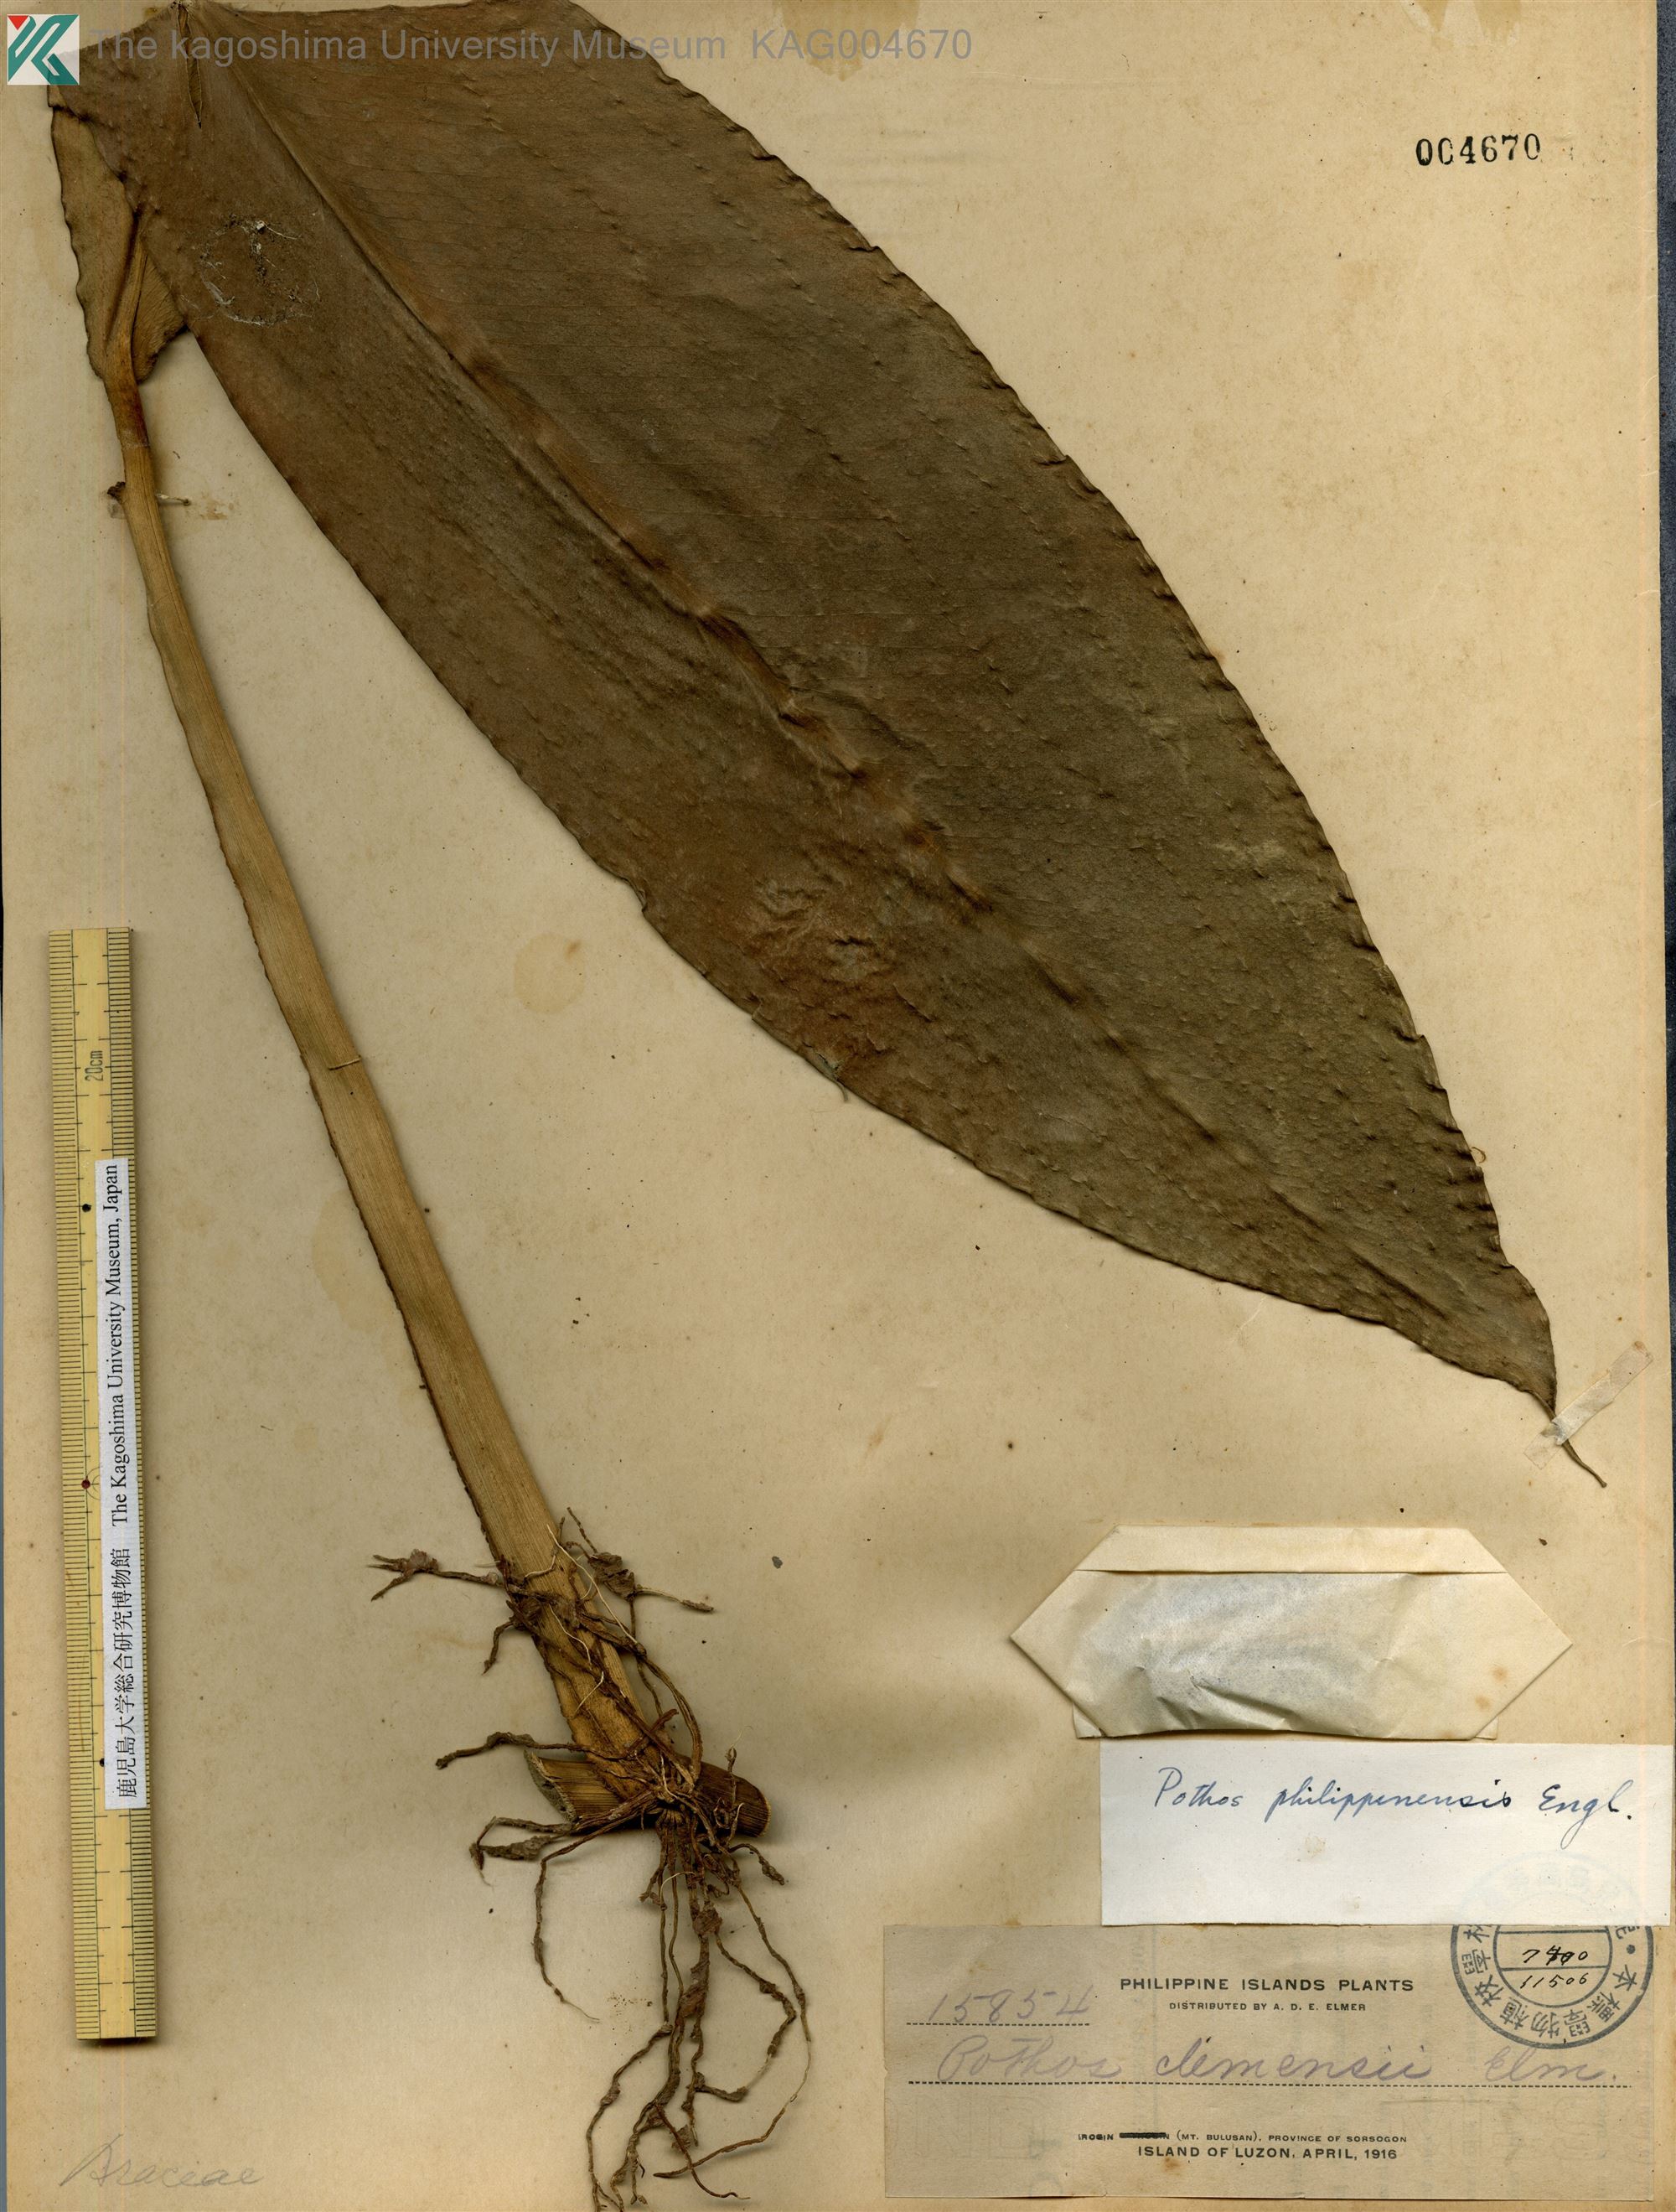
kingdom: Plantae
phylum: Tracheophyta
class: Liliopsida
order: Alismatales
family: Araceae
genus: Pothos
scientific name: Pothos philippinensis
